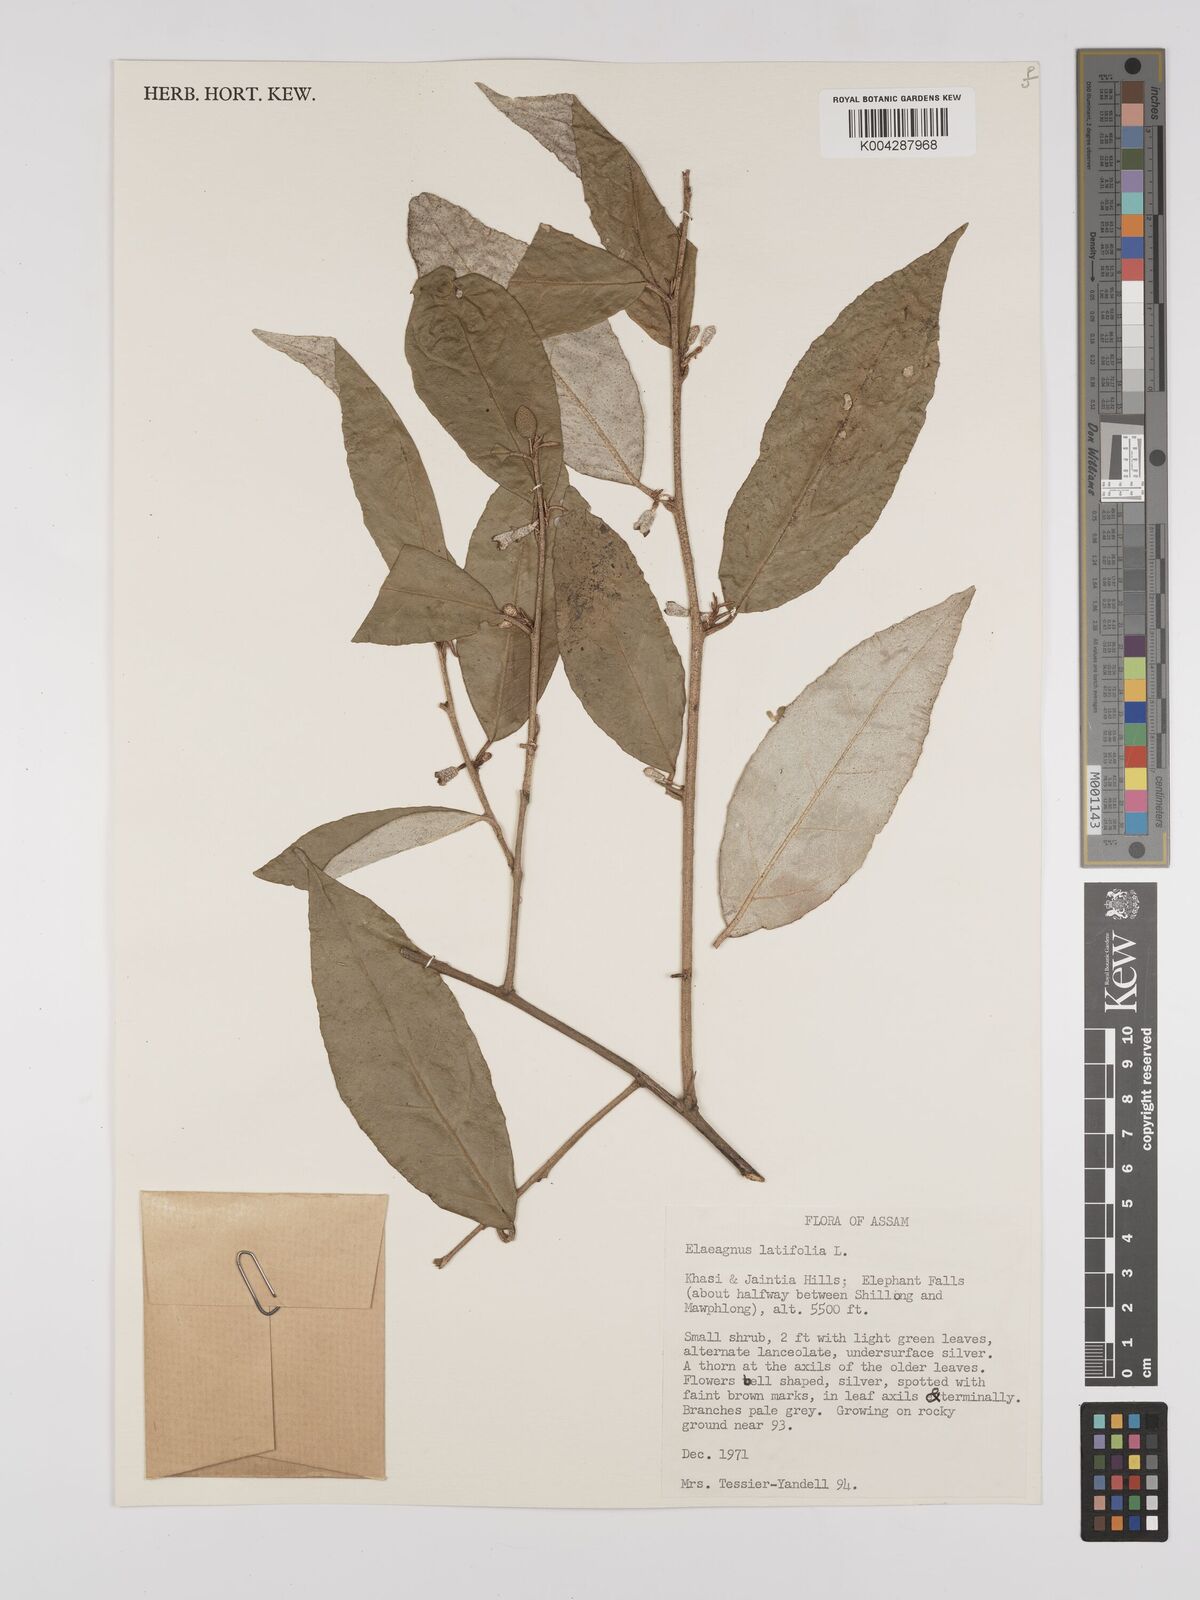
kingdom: Plantae
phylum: Tracheophyta
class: Magnoliopsida
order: Rosales
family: Elaeagnaceae
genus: Elaeagnus
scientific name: Elaeagnus latifolia
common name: Oleaster
